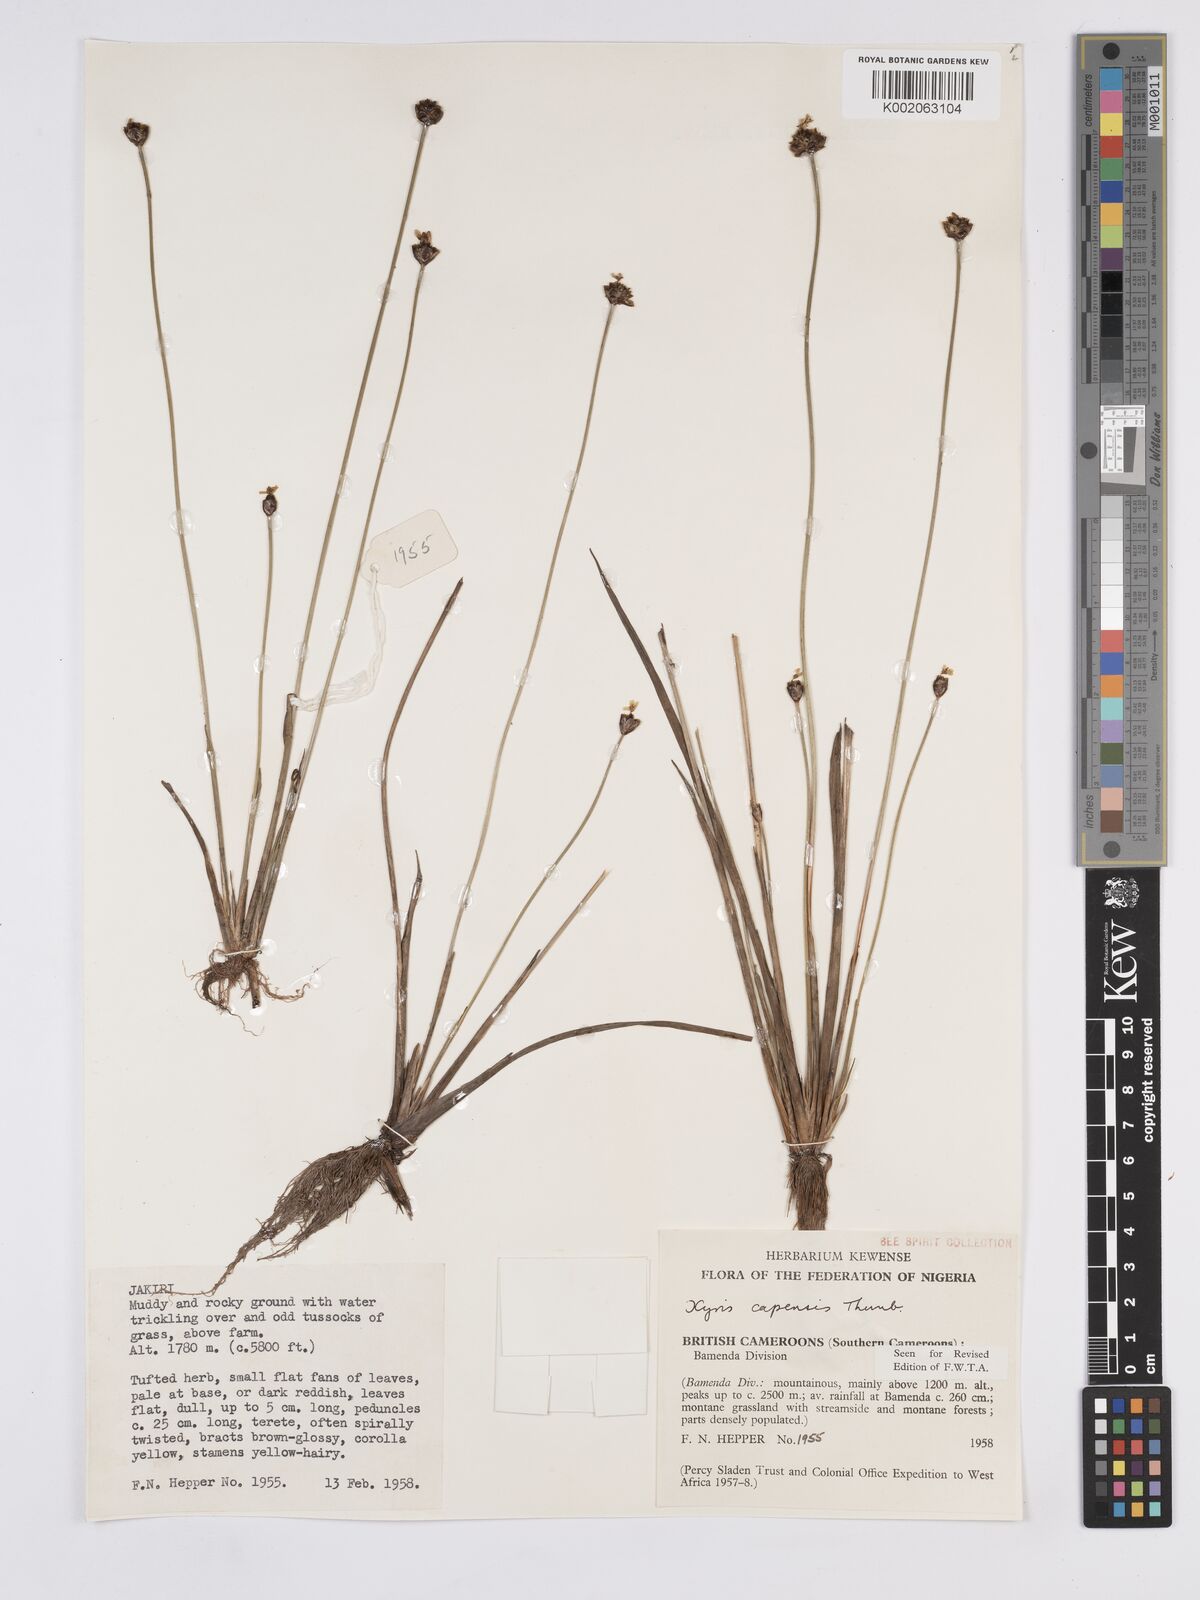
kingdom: Plantae
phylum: Tracheophyta
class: Liliopsida
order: Poales
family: Xyridaceae
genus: Xyris
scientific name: Xyris capensis
